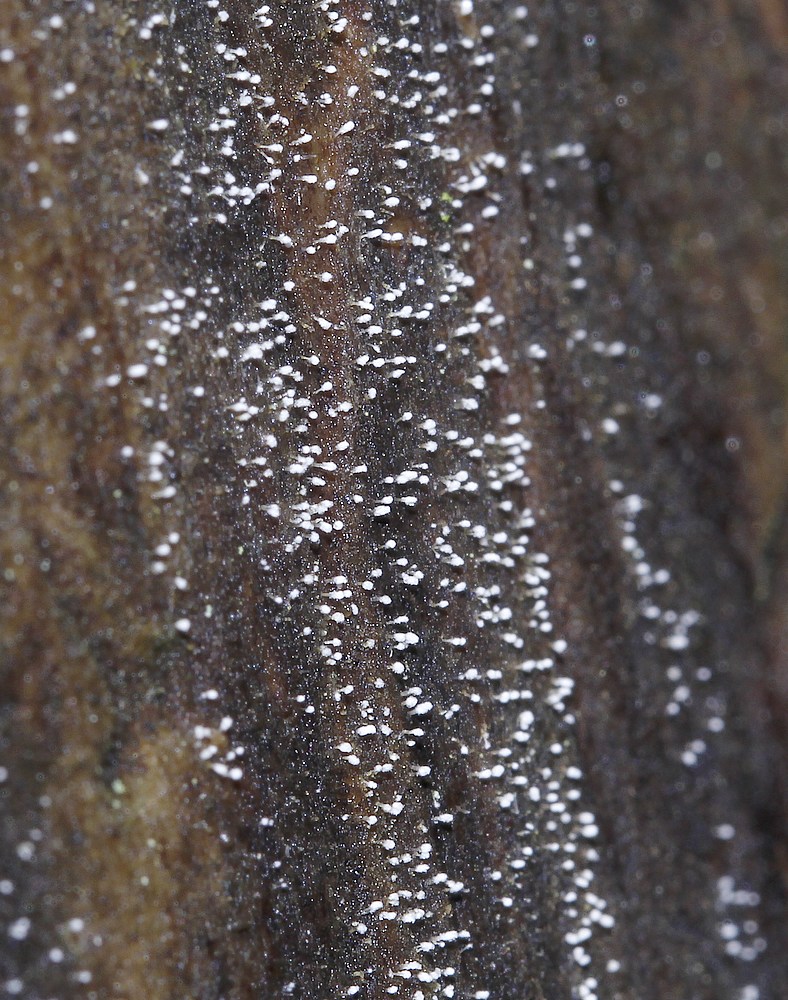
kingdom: Fungi
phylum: Ascomycota
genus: Sphaeridium
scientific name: Sphaeridium candidulum
